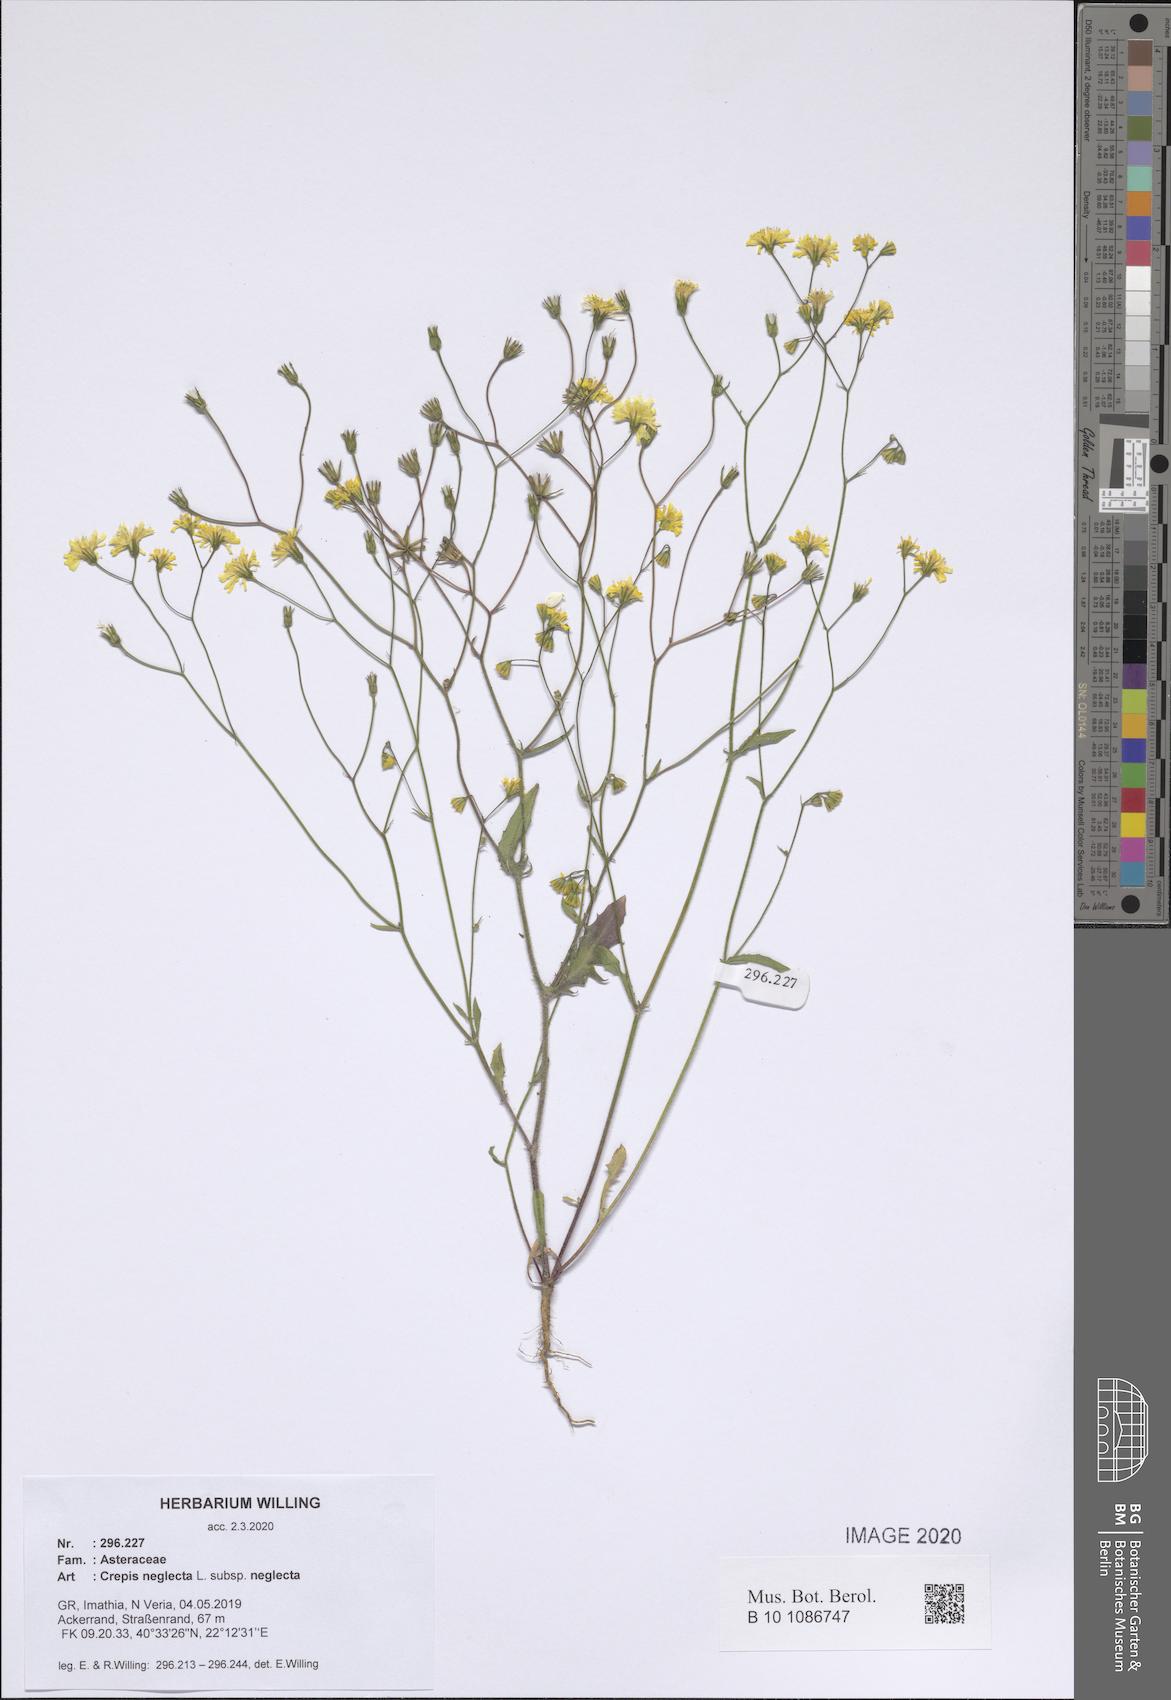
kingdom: Plantae
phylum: Tracheophyta
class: Magnoliopsida
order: Asterales
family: Asteraceae
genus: Crepis
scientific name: Crepis neglecta
